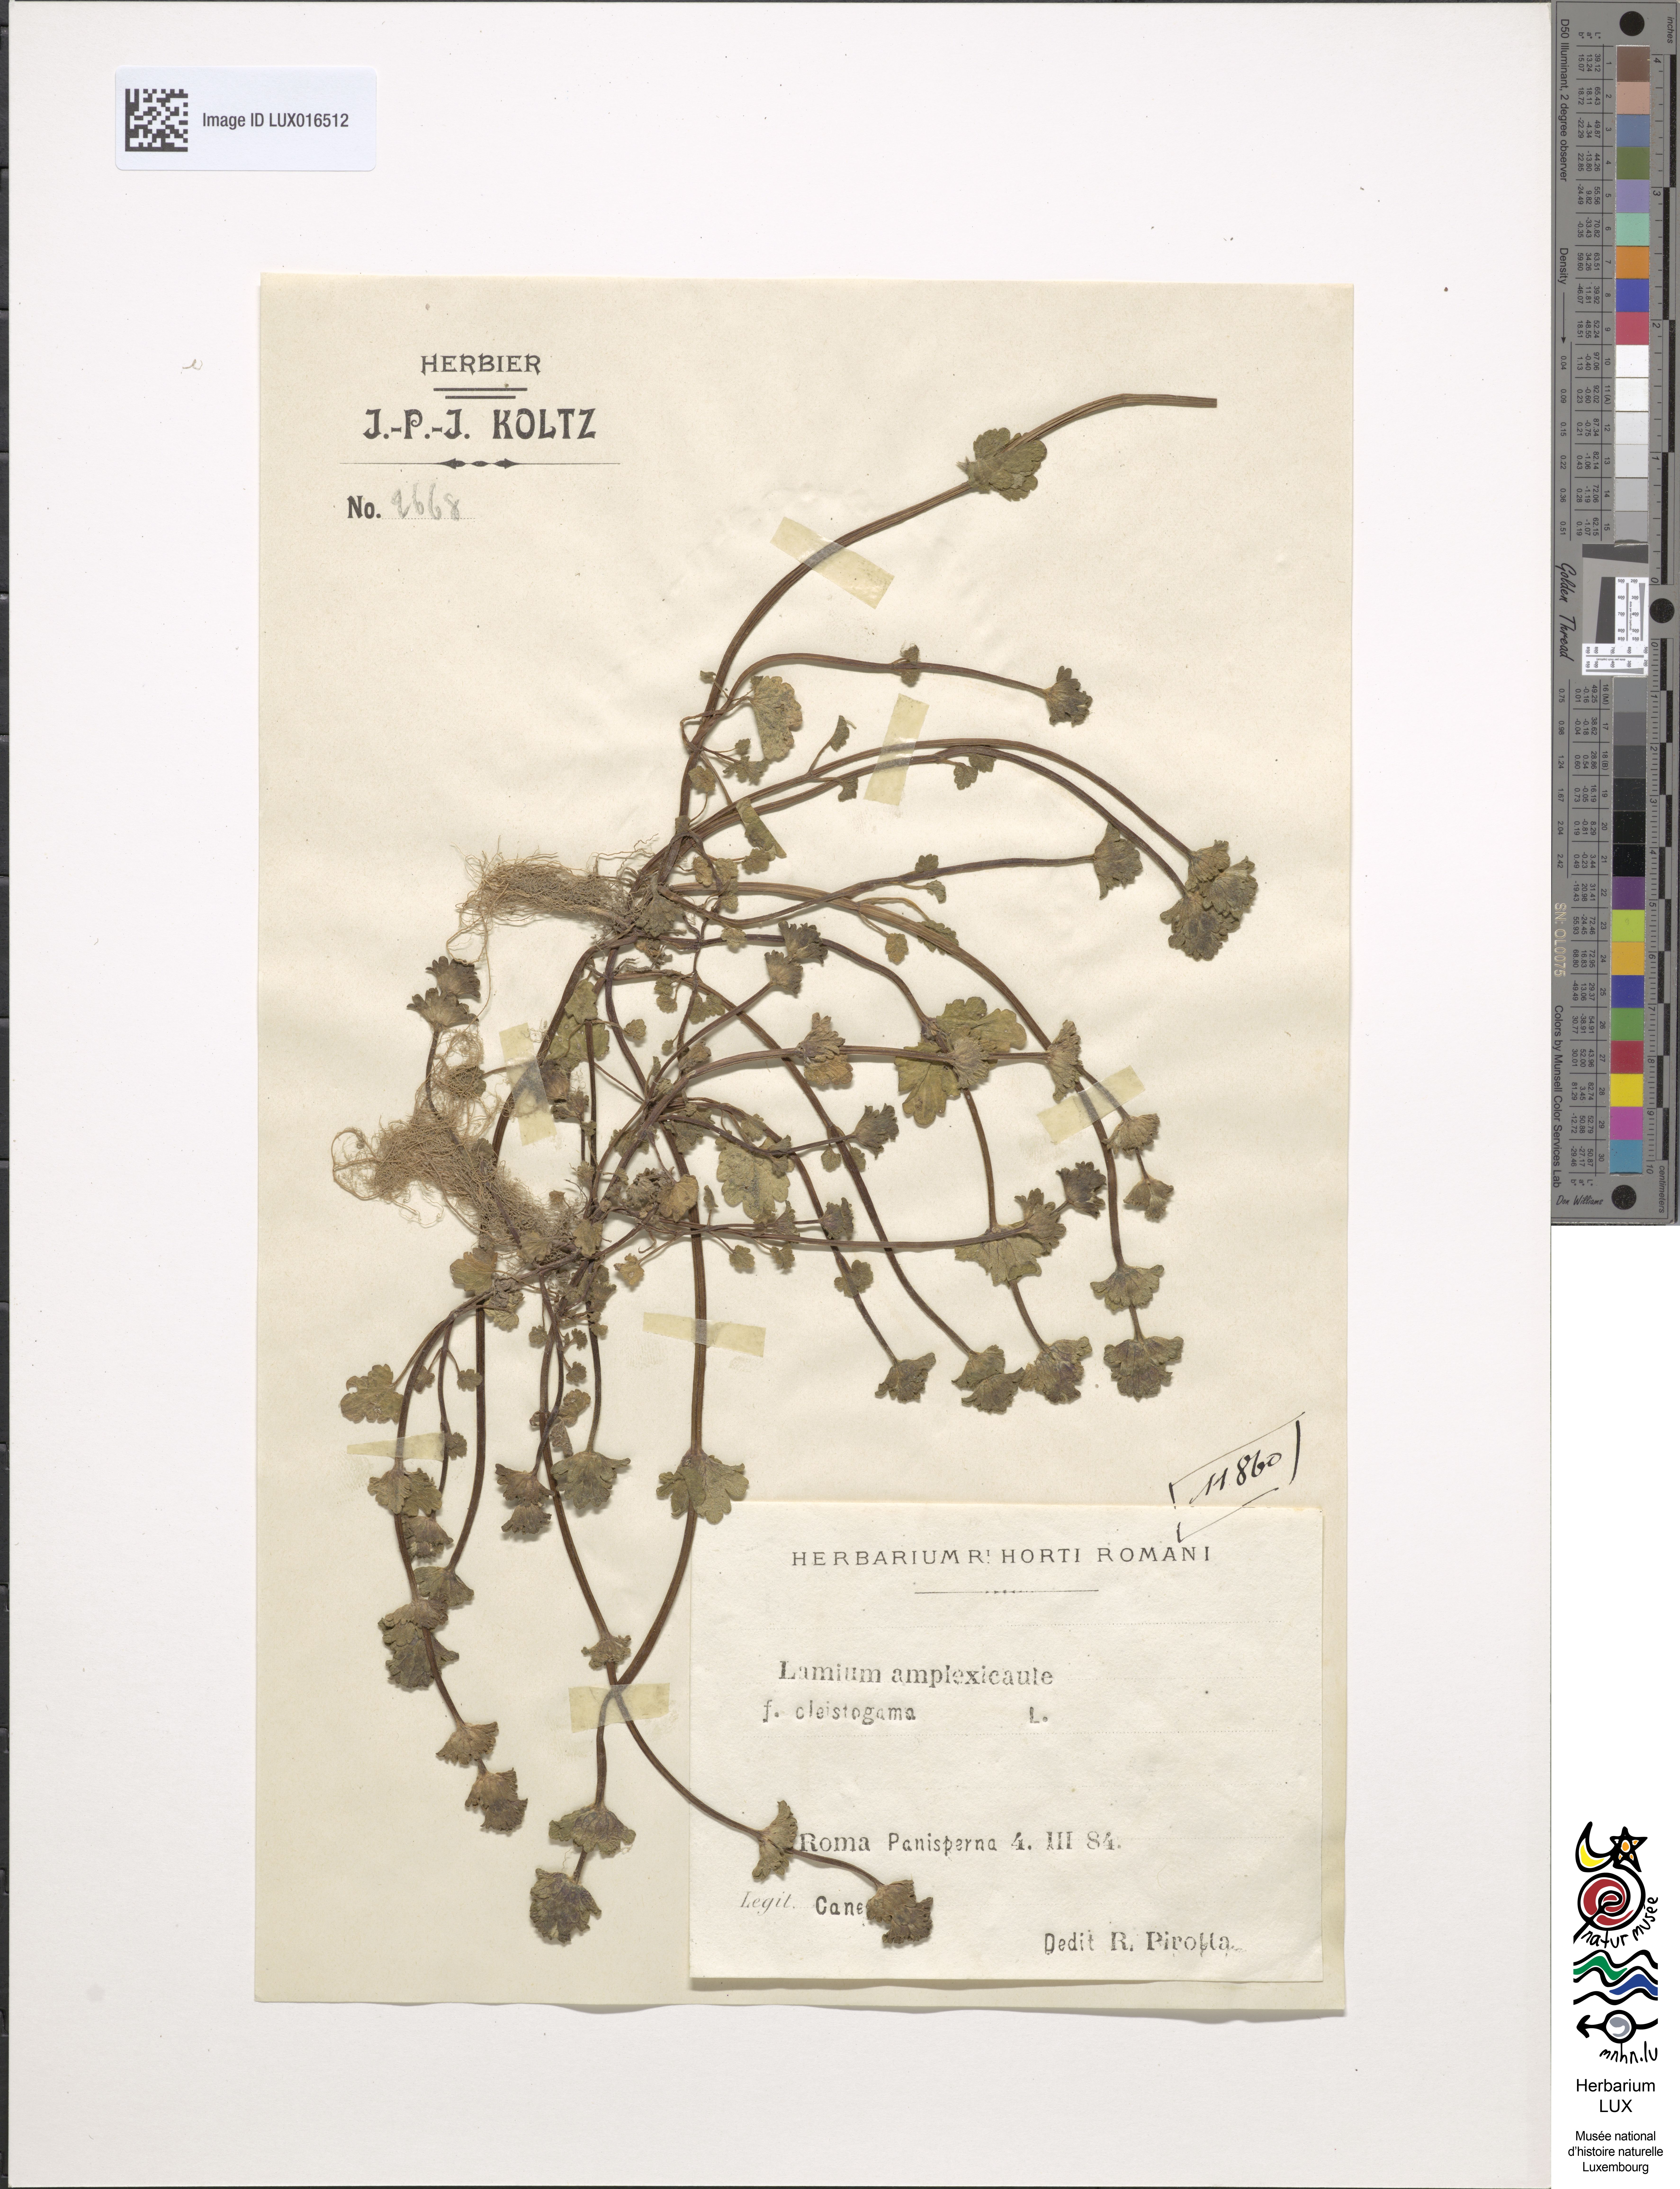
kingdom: Plantae
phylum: Tracheophyta
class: Magnoliopsida
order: Lamiales
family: Lamiaceae
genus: Lamium
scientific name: Lamium amplexicaule
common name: Henbit dead-nettle
